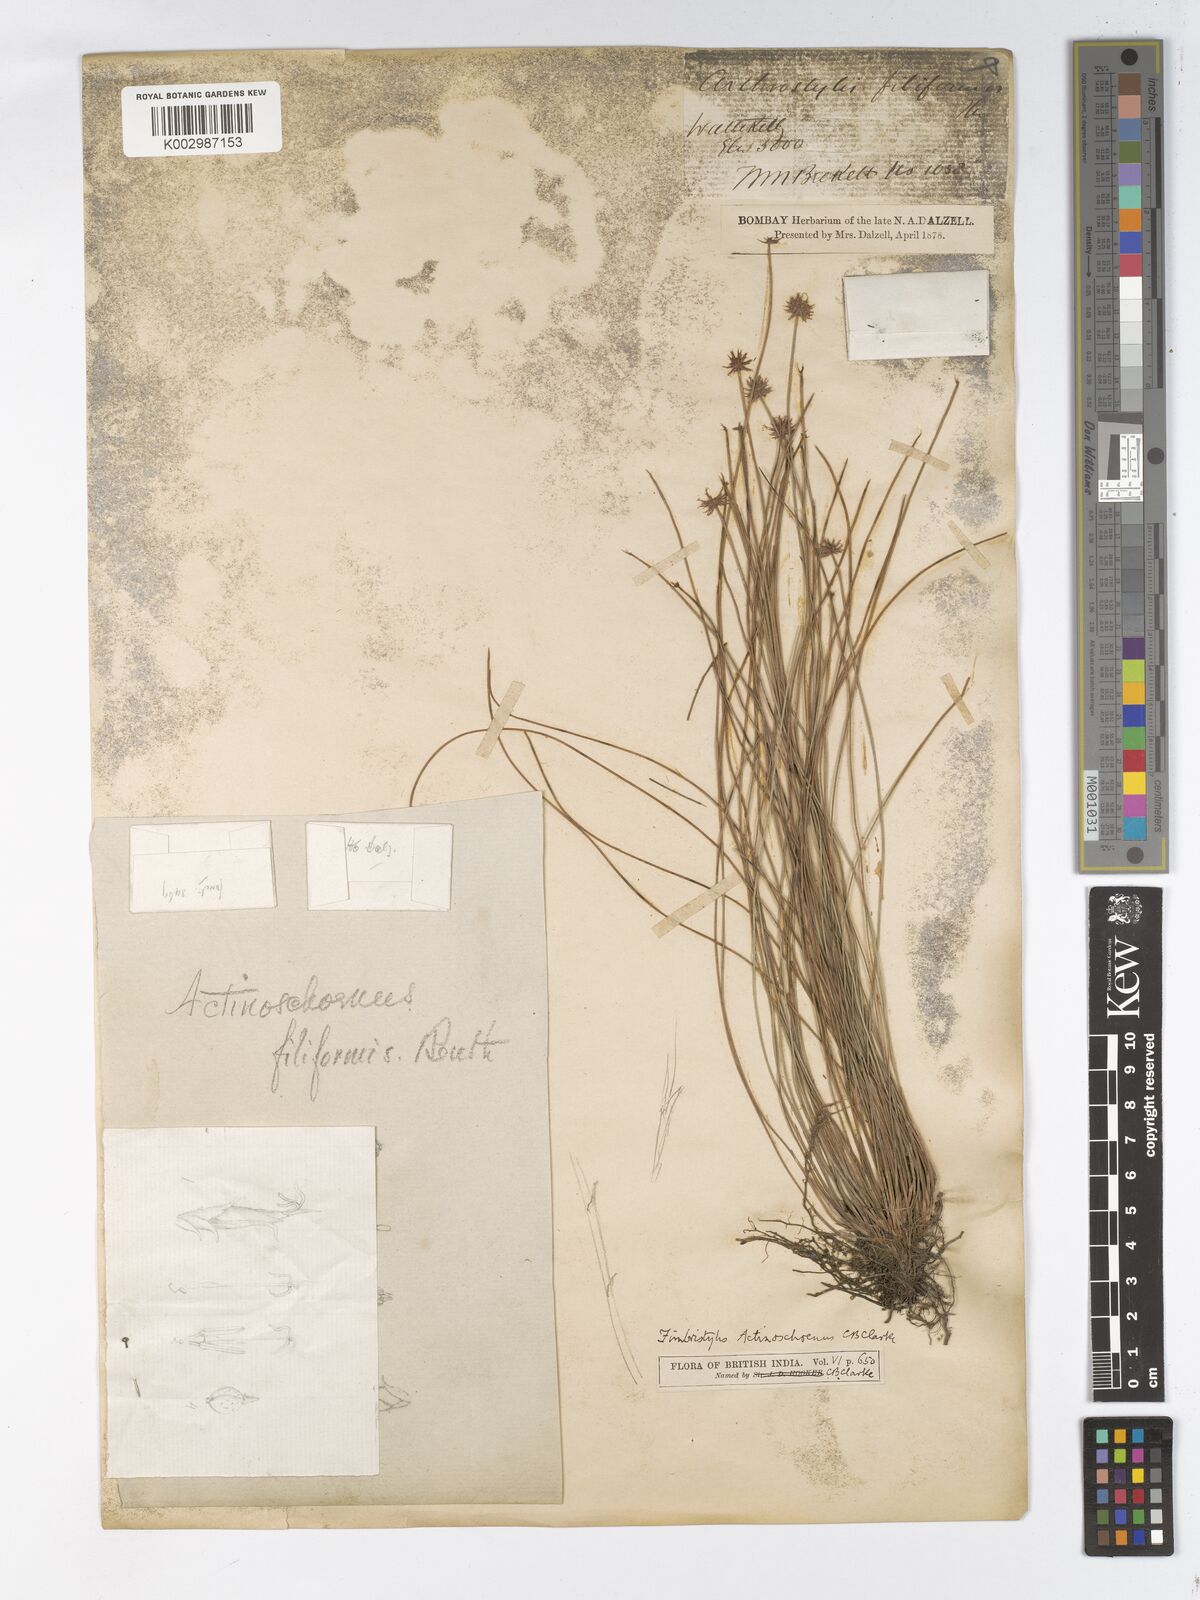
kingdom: Plantae
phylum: Tracheophyta
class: Liliopsida
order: Poales
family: Cyperaceae
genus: Actinoschoenus
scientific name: Actinoschoenus
